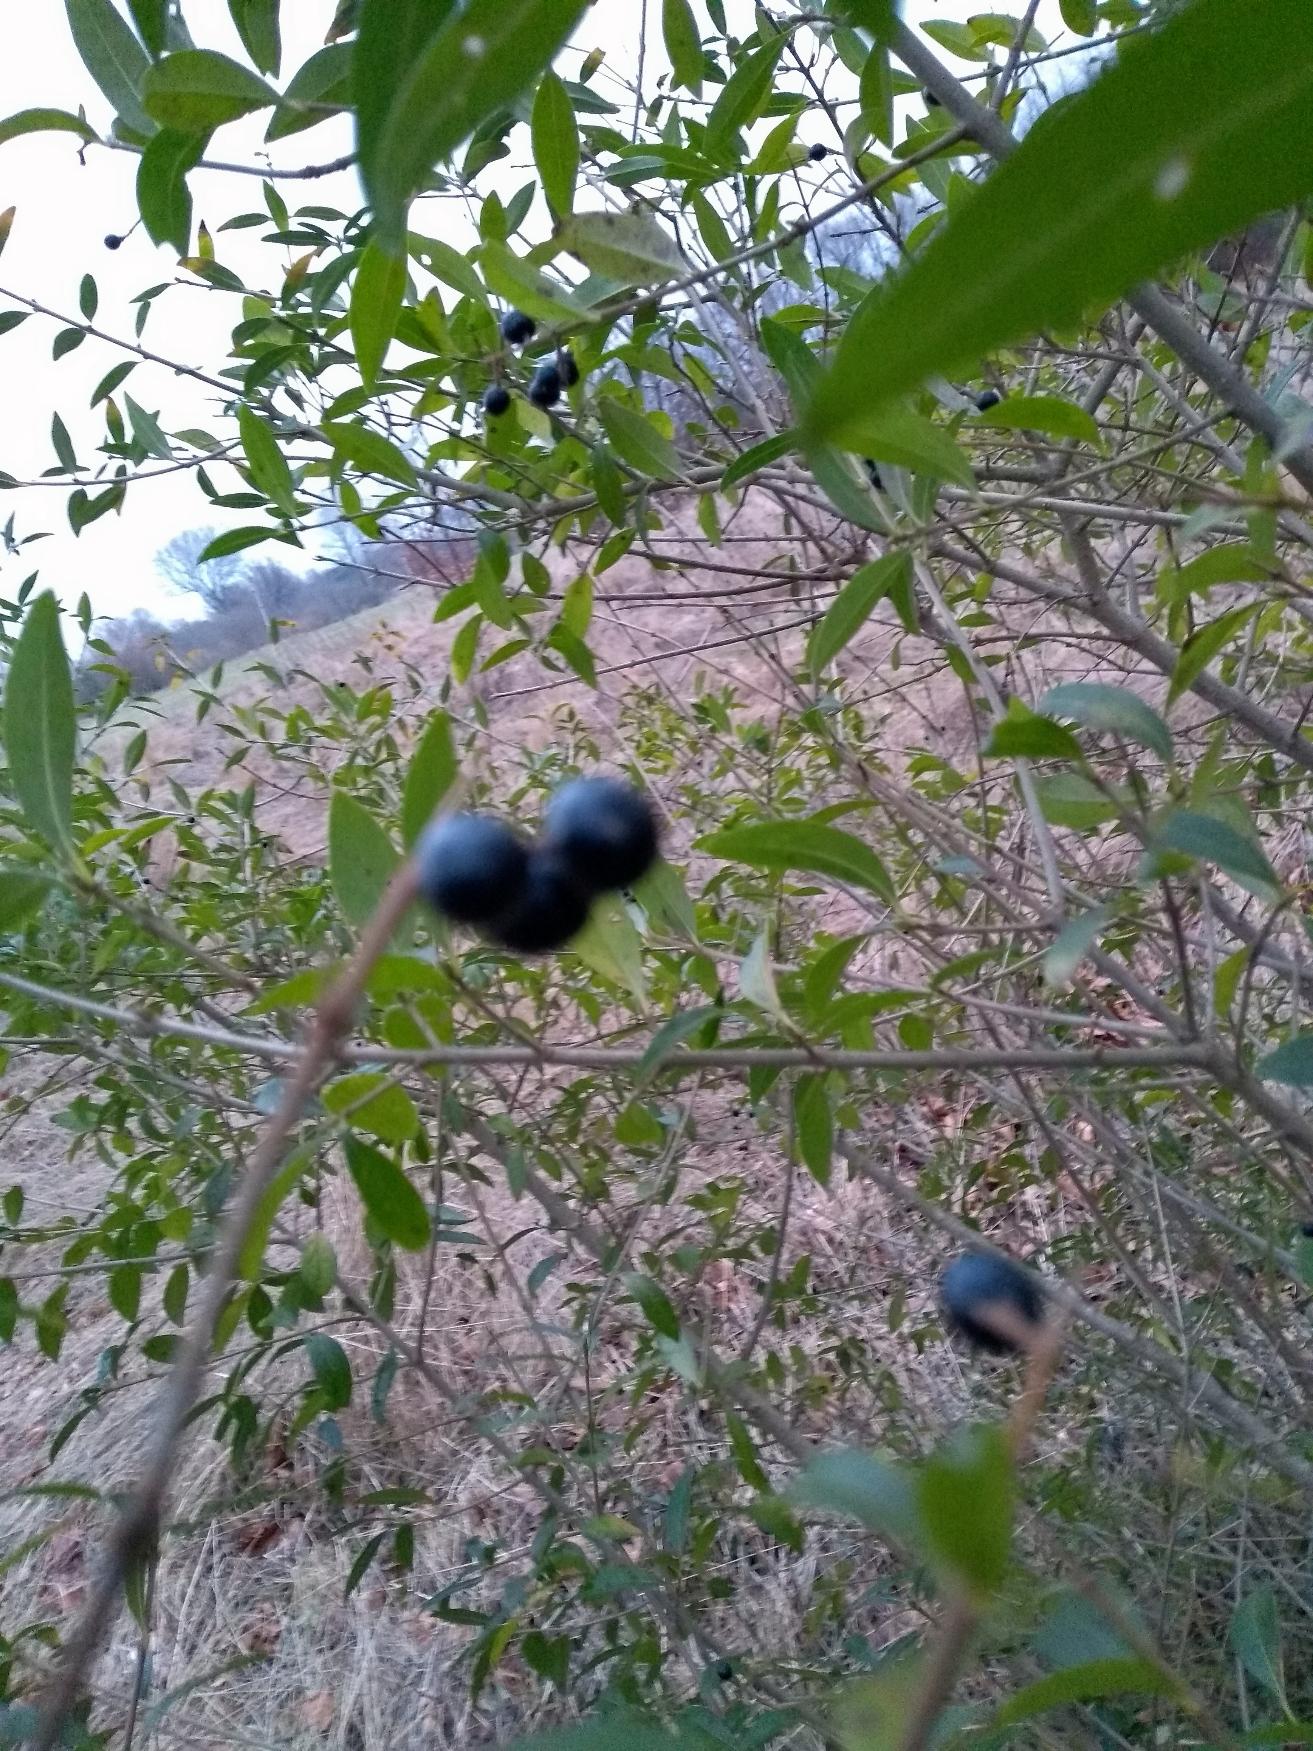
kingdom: Plantae
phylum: Tracheophyta
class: Magnoliopsida
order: Lamiales
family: Oleaceae
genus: Ligustrum
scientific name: Ligustrum vulgare
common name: Liguster
